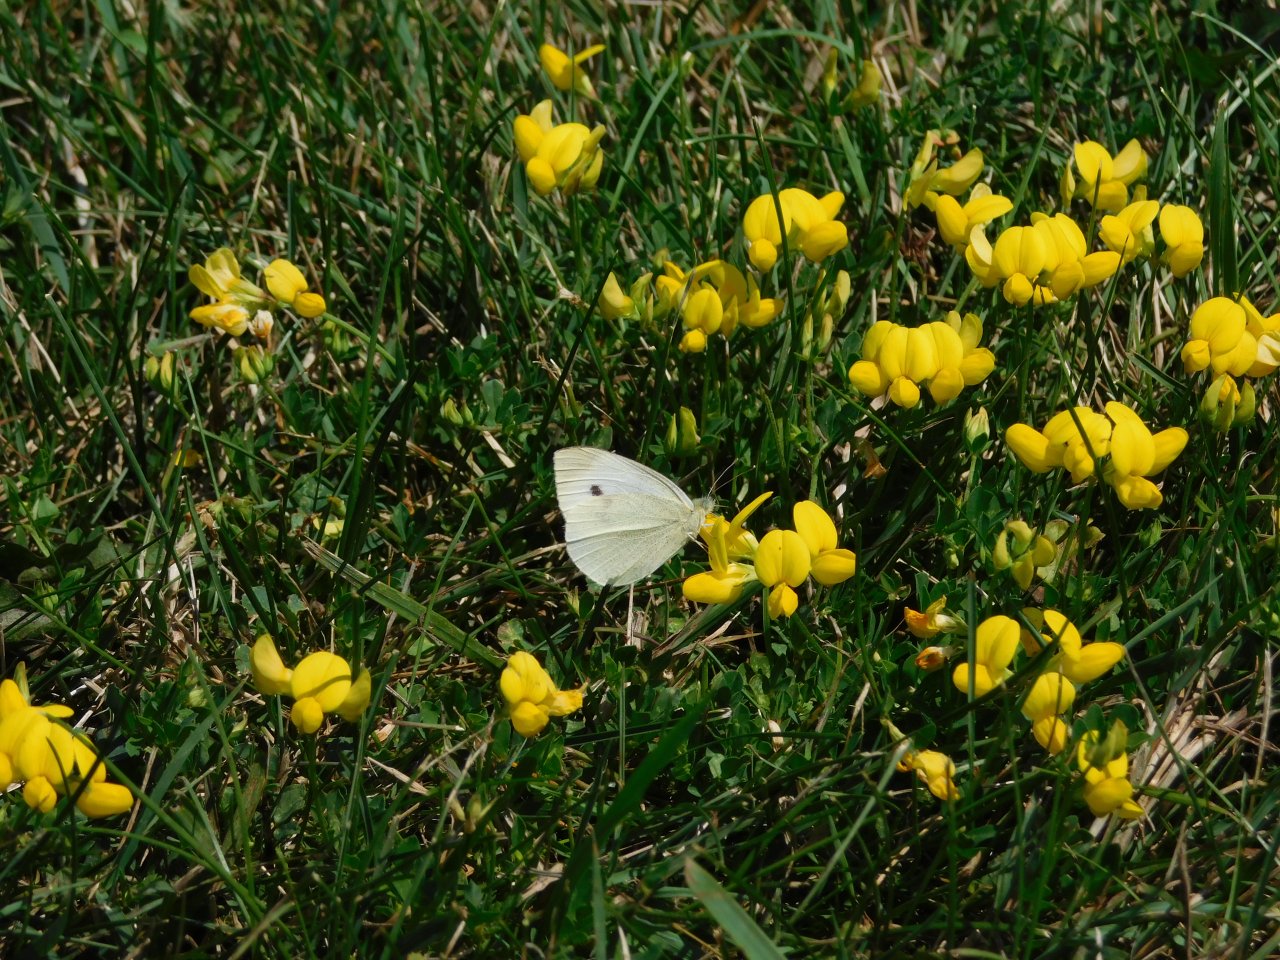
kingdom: Animalia
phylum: Arthropoda
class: Insecta
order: Lepidoptera
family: Pieridae
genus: Pieris
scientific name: Pieris rapae
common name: Cabbage White
